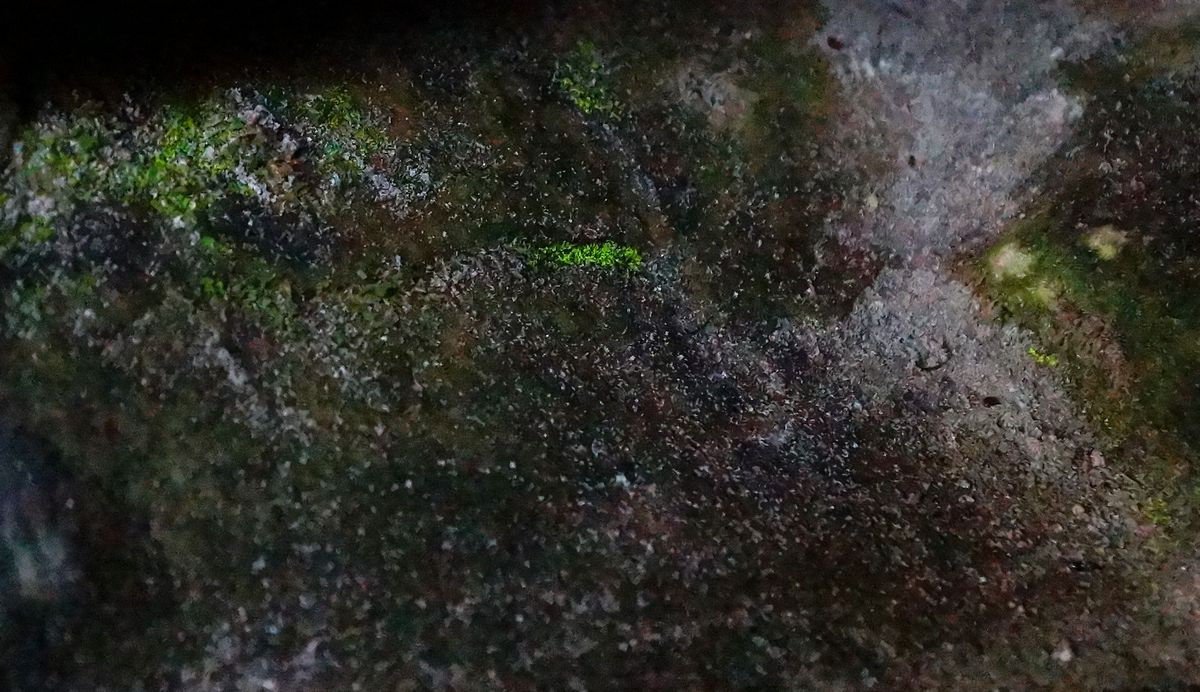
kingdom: Plantae
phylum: Bryophyta
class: Bryopsida
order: Dicranales
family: Schistostegaceae
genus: Schistostega
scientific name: Schistostega pennata
